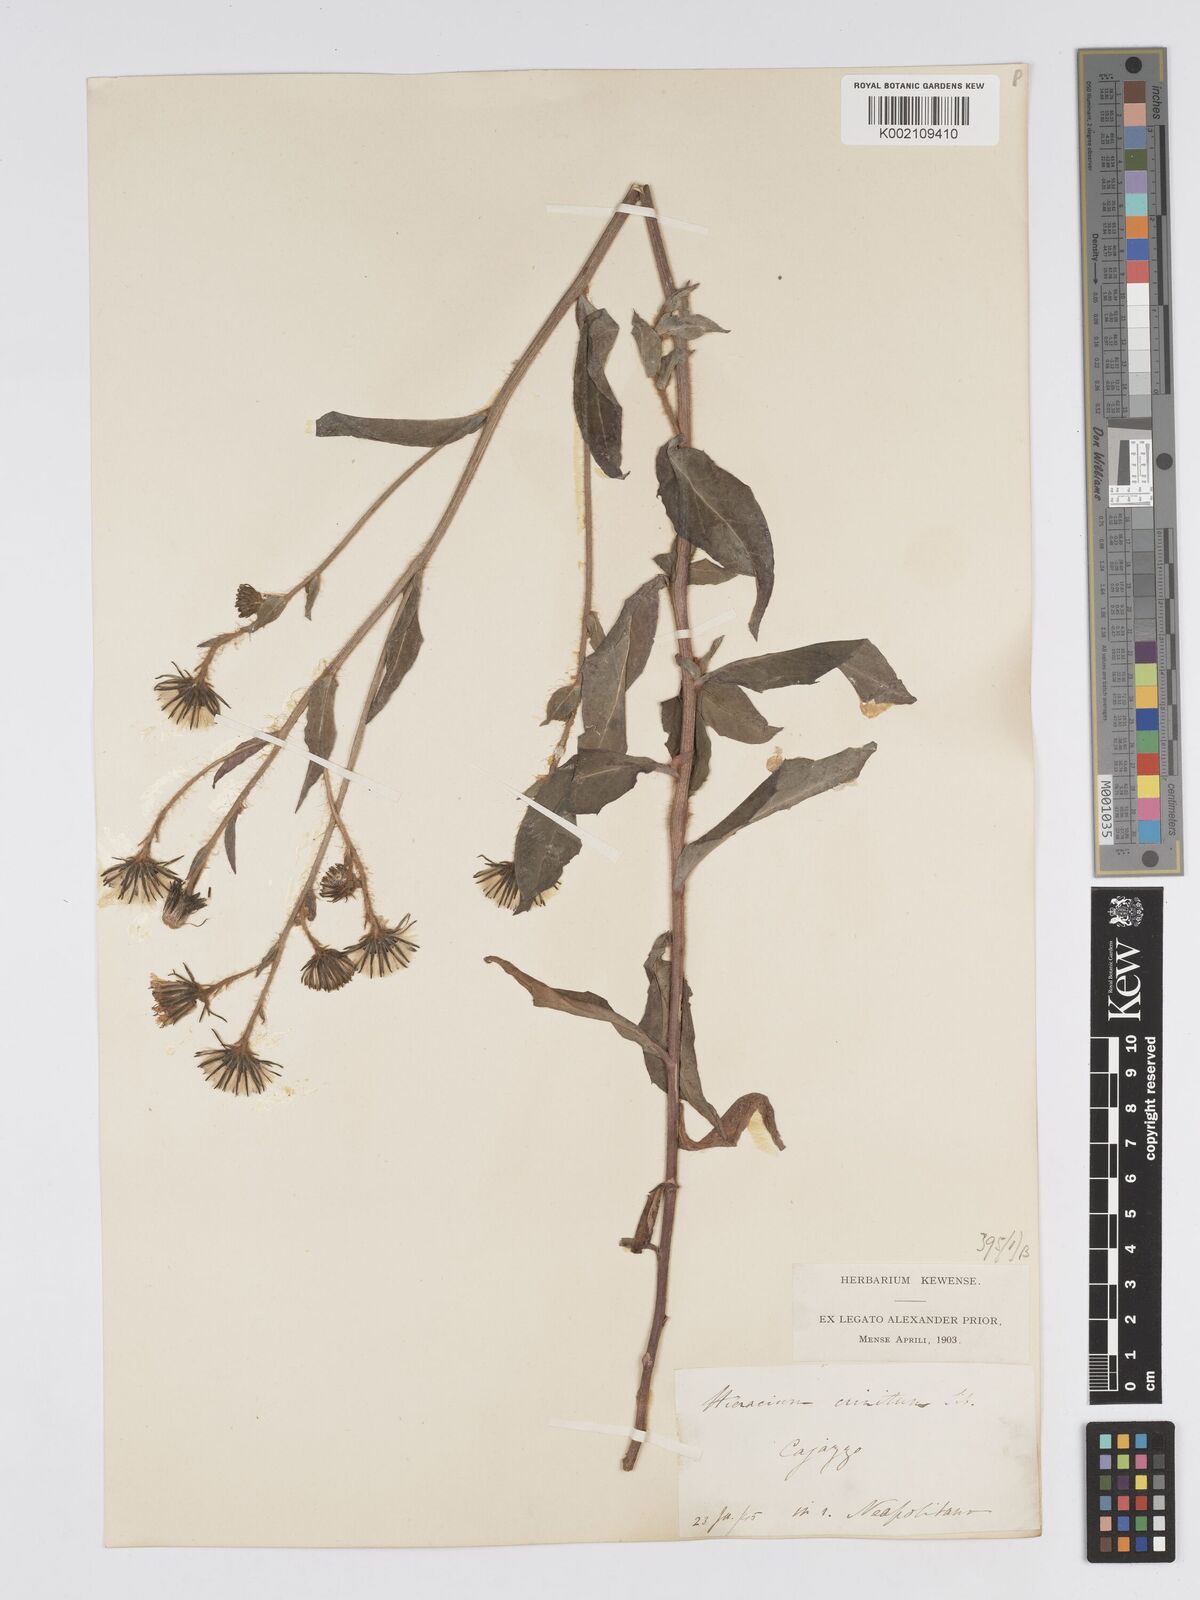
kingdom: Plantae
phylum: Tracheophyta
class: Magnoliopsida
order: Asterales
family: Asteraceae
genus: Hieracium
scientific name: Hieracium racemosum
